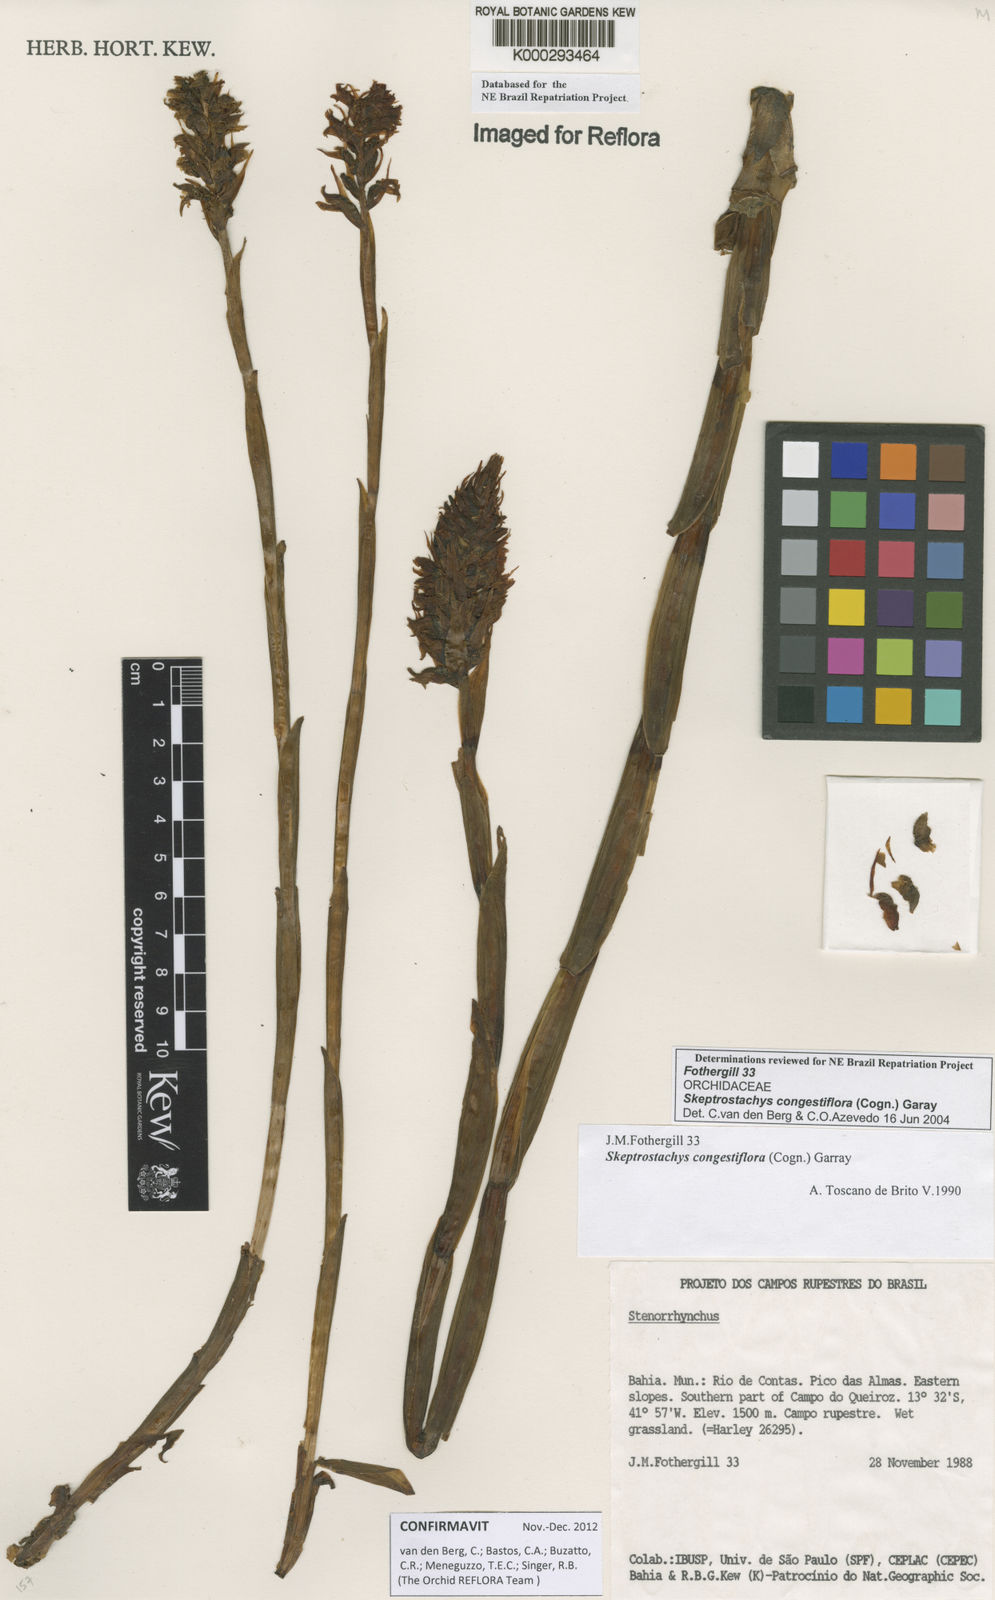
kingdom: Plantae
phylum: Tracheophyta
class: Liliopsida
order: Asparagales
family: Orchidaceae
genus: Skeptrostachys
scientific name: Skeptrostachys congestiflora
